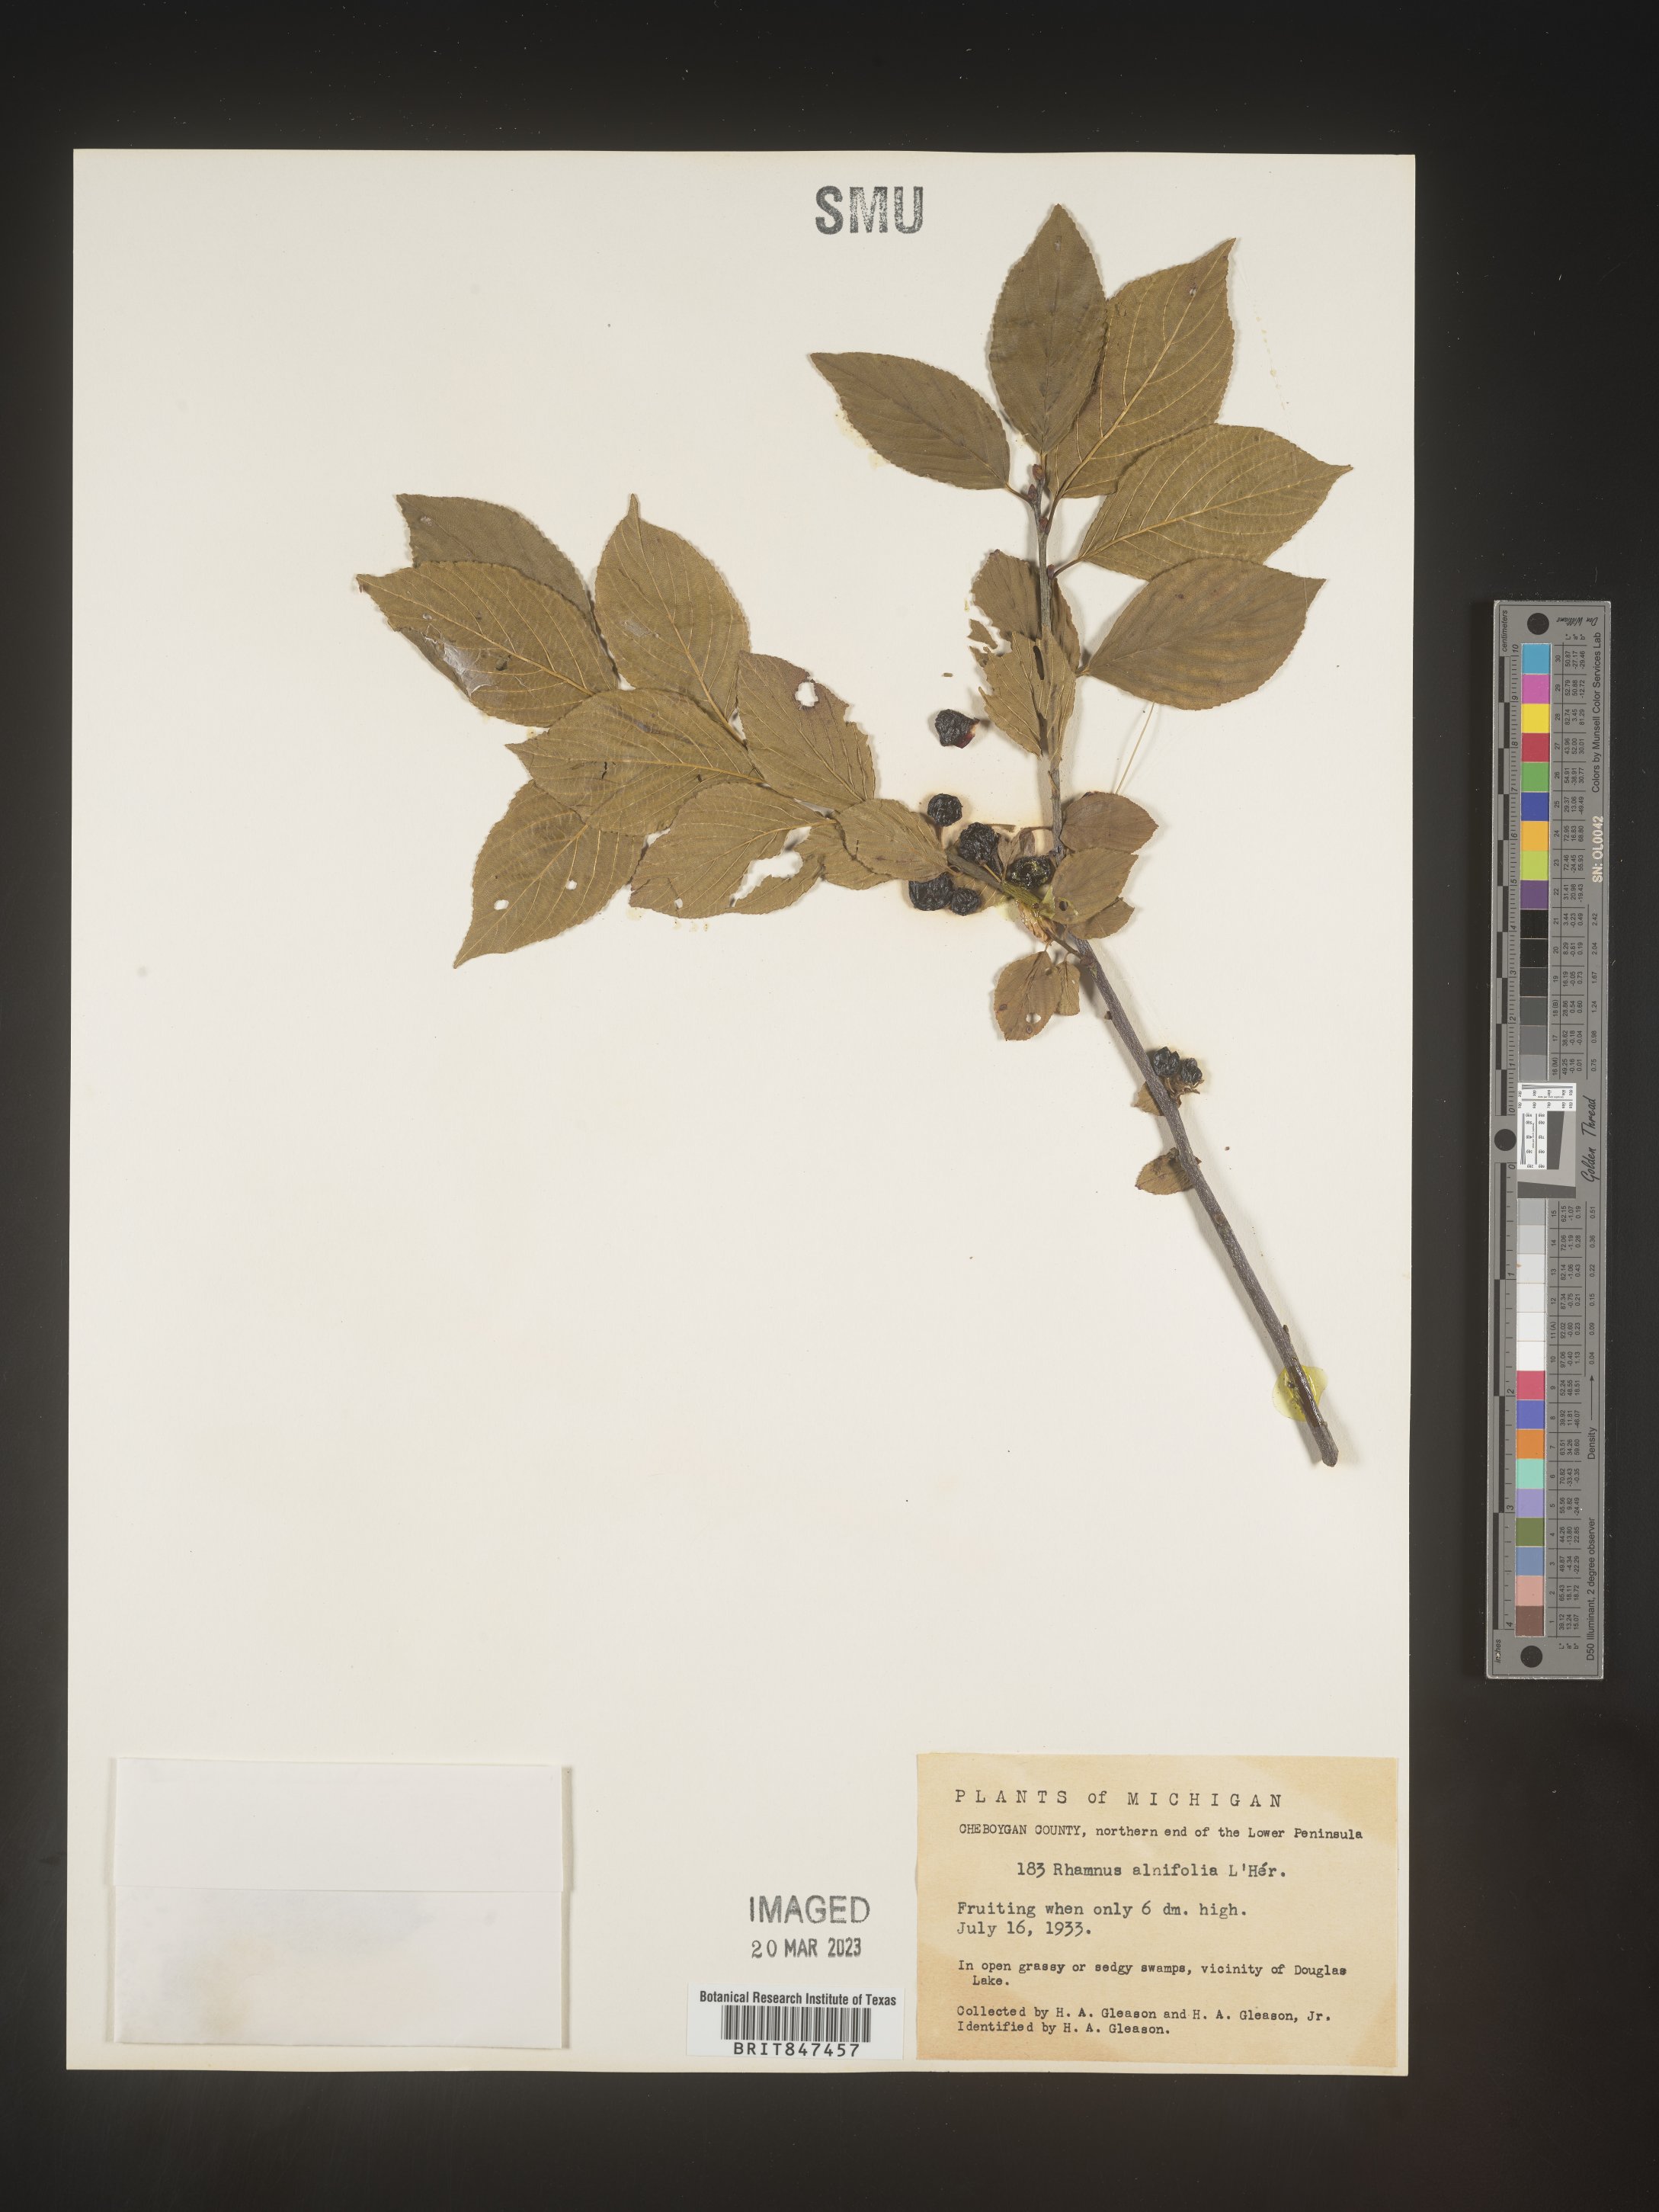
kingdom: Plantae
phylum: Tracheophyta
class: Magnoliopsida
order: Rosales
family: Rhamnaceae
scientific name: Rhamnaceae
